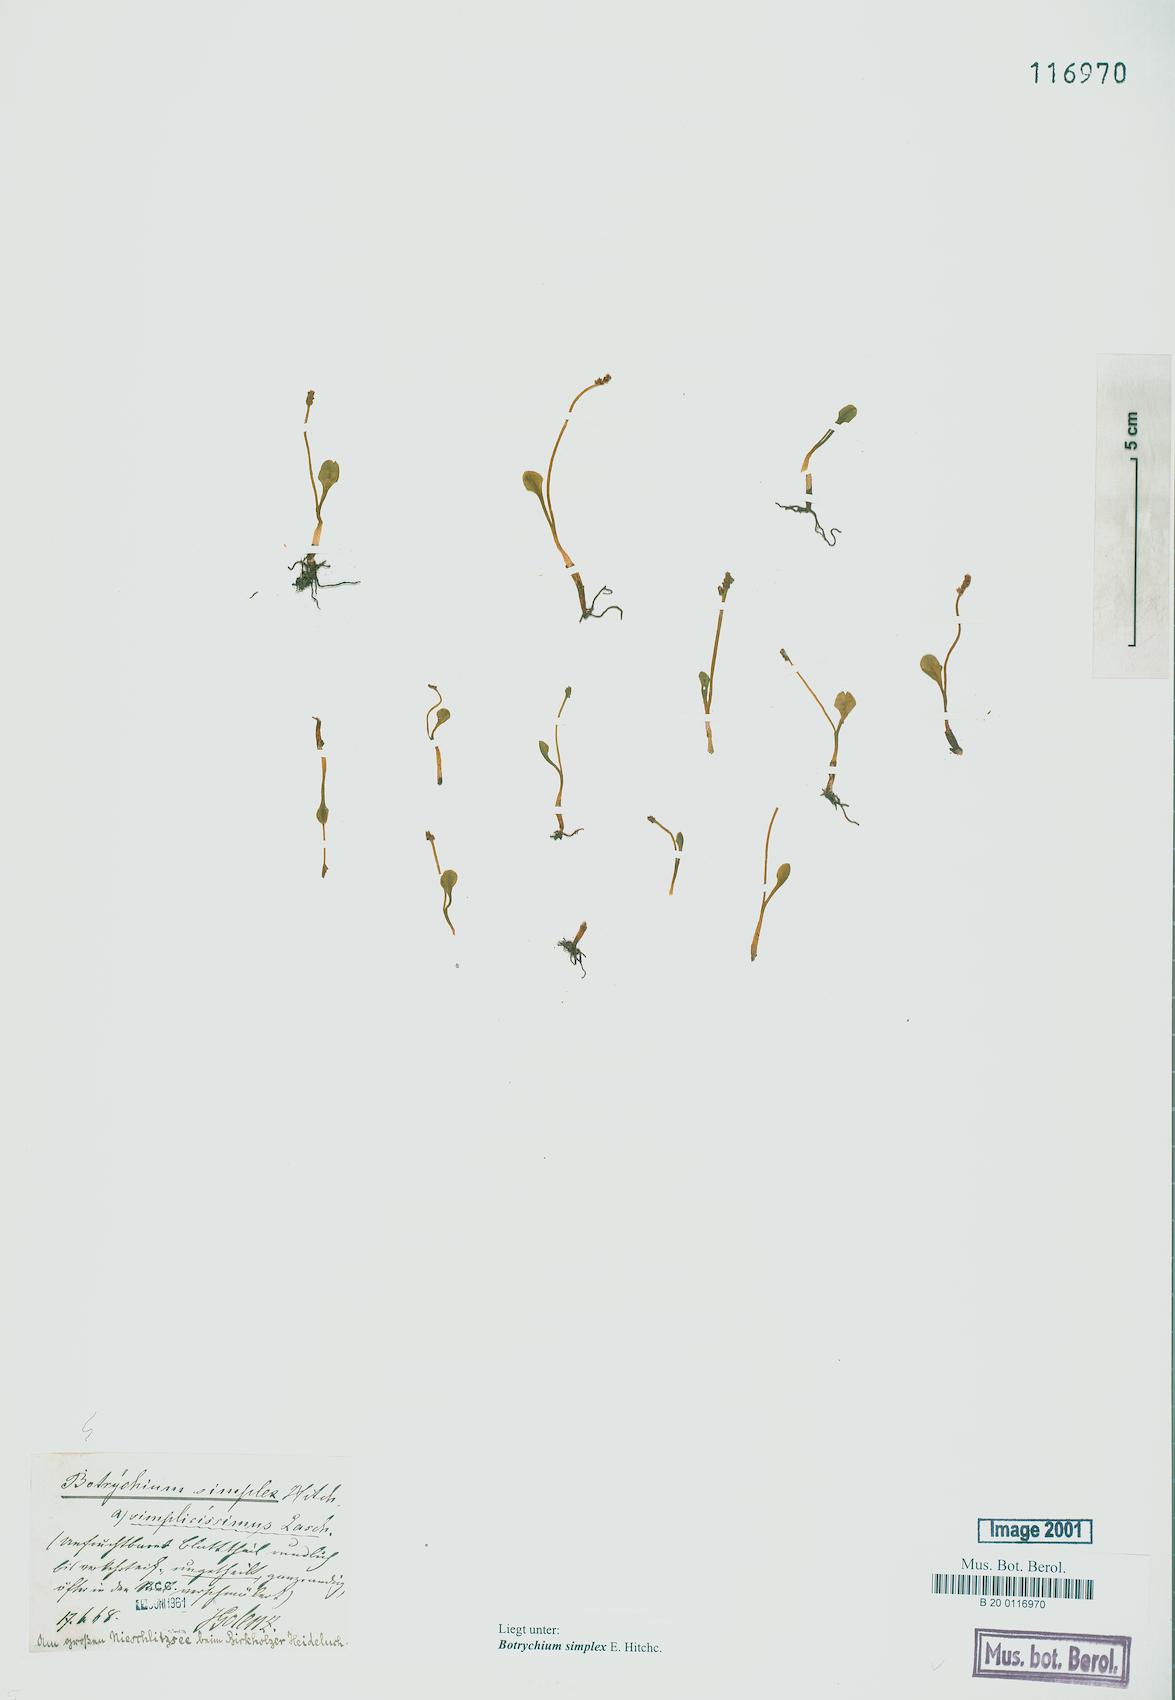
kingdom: Plantae
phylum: Tracheophyta
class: Polypodiopsida
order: Ophioglossales
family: Ophioglossaceae
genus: Botrychium
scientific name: Botrychium simplex
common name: Least moonwort
